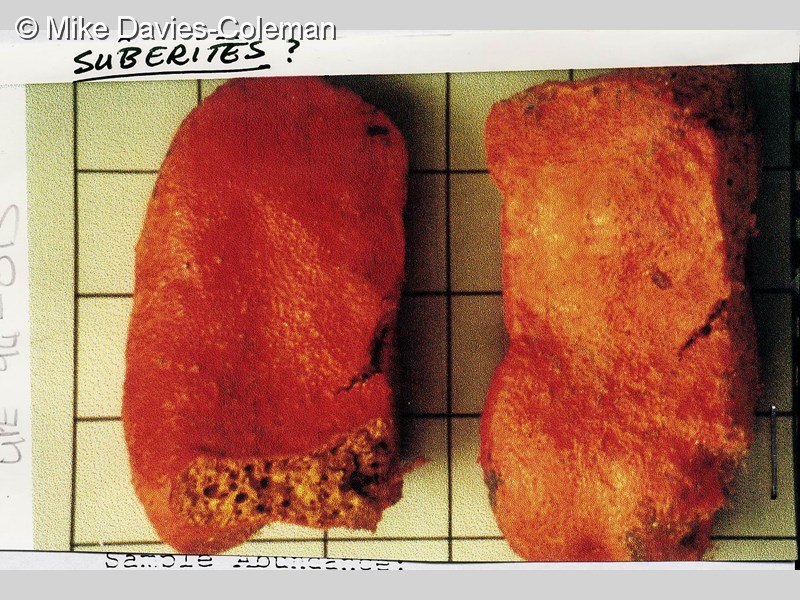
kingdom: Animalia
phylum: Porifera
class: Demospongiae
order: Clionaida
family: Clionaidae
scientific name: Clionaidae
